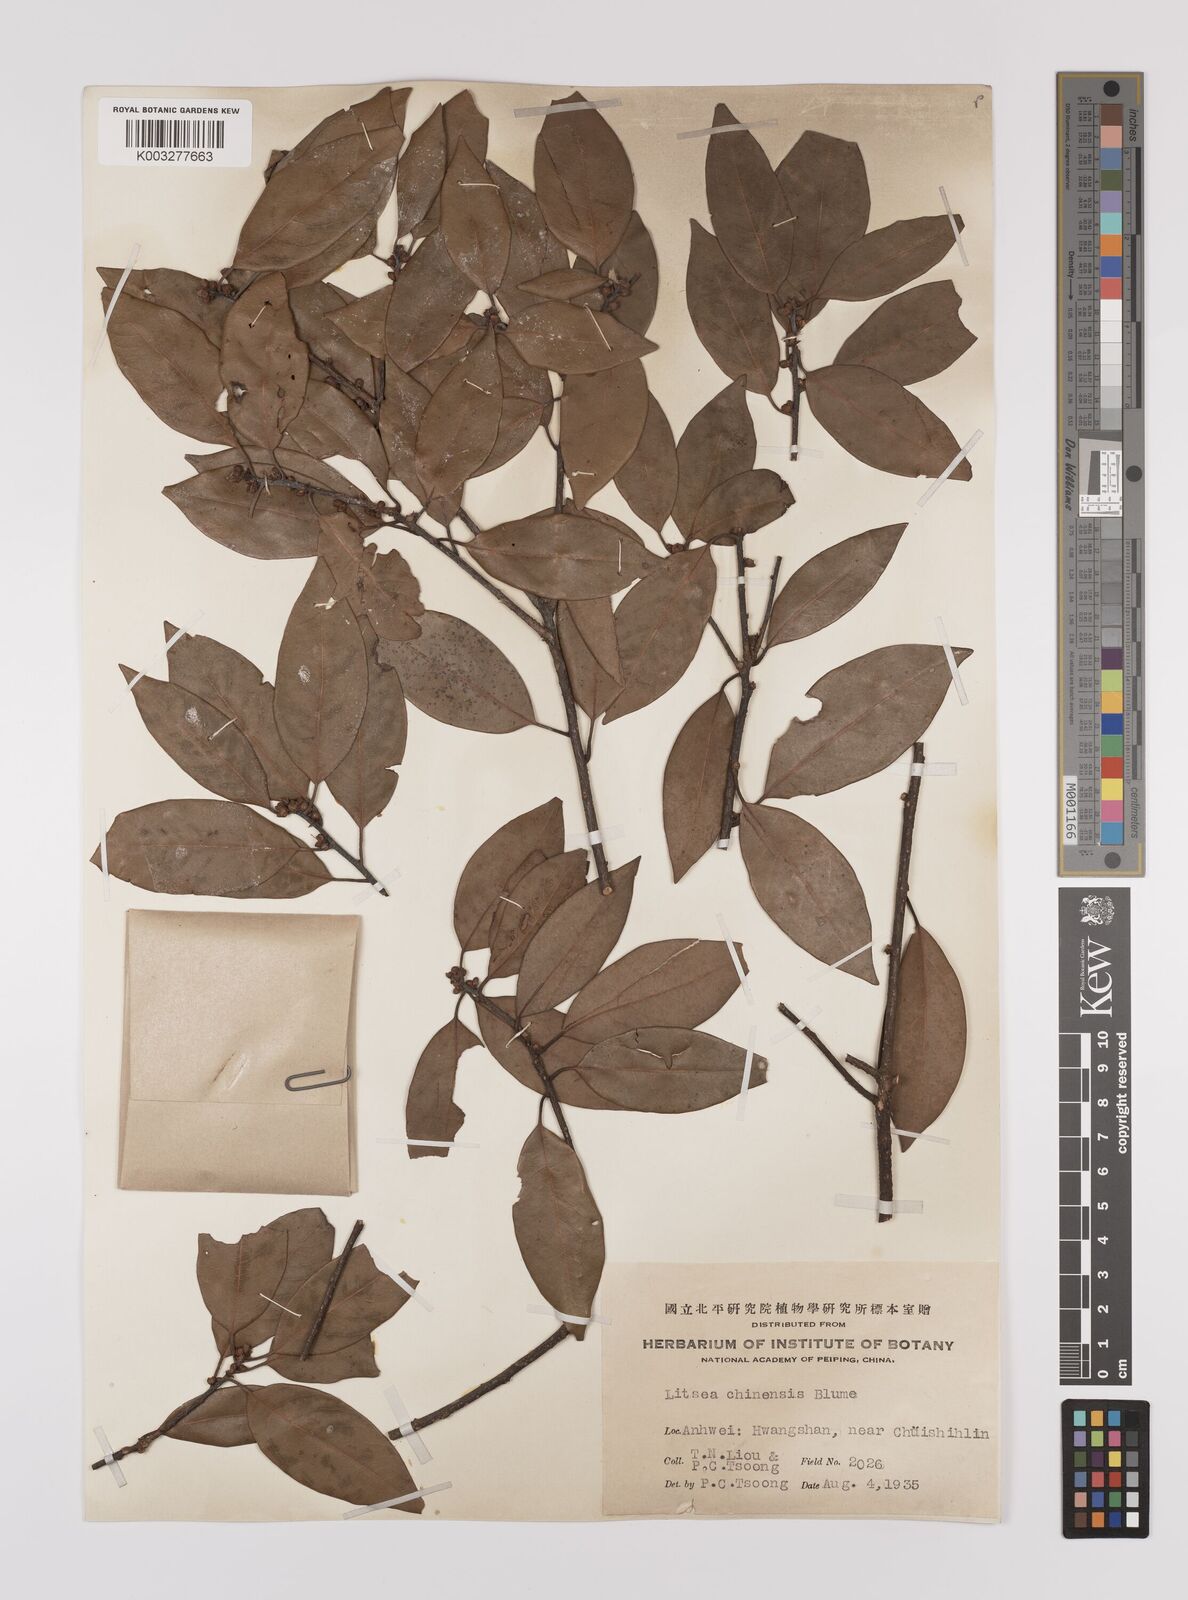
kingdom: Plantae
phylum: Tracheophyta
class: Magnoliopsida
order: Laurales
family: Lauraceae
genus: Litsea
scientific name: Litsea rotundifolia
